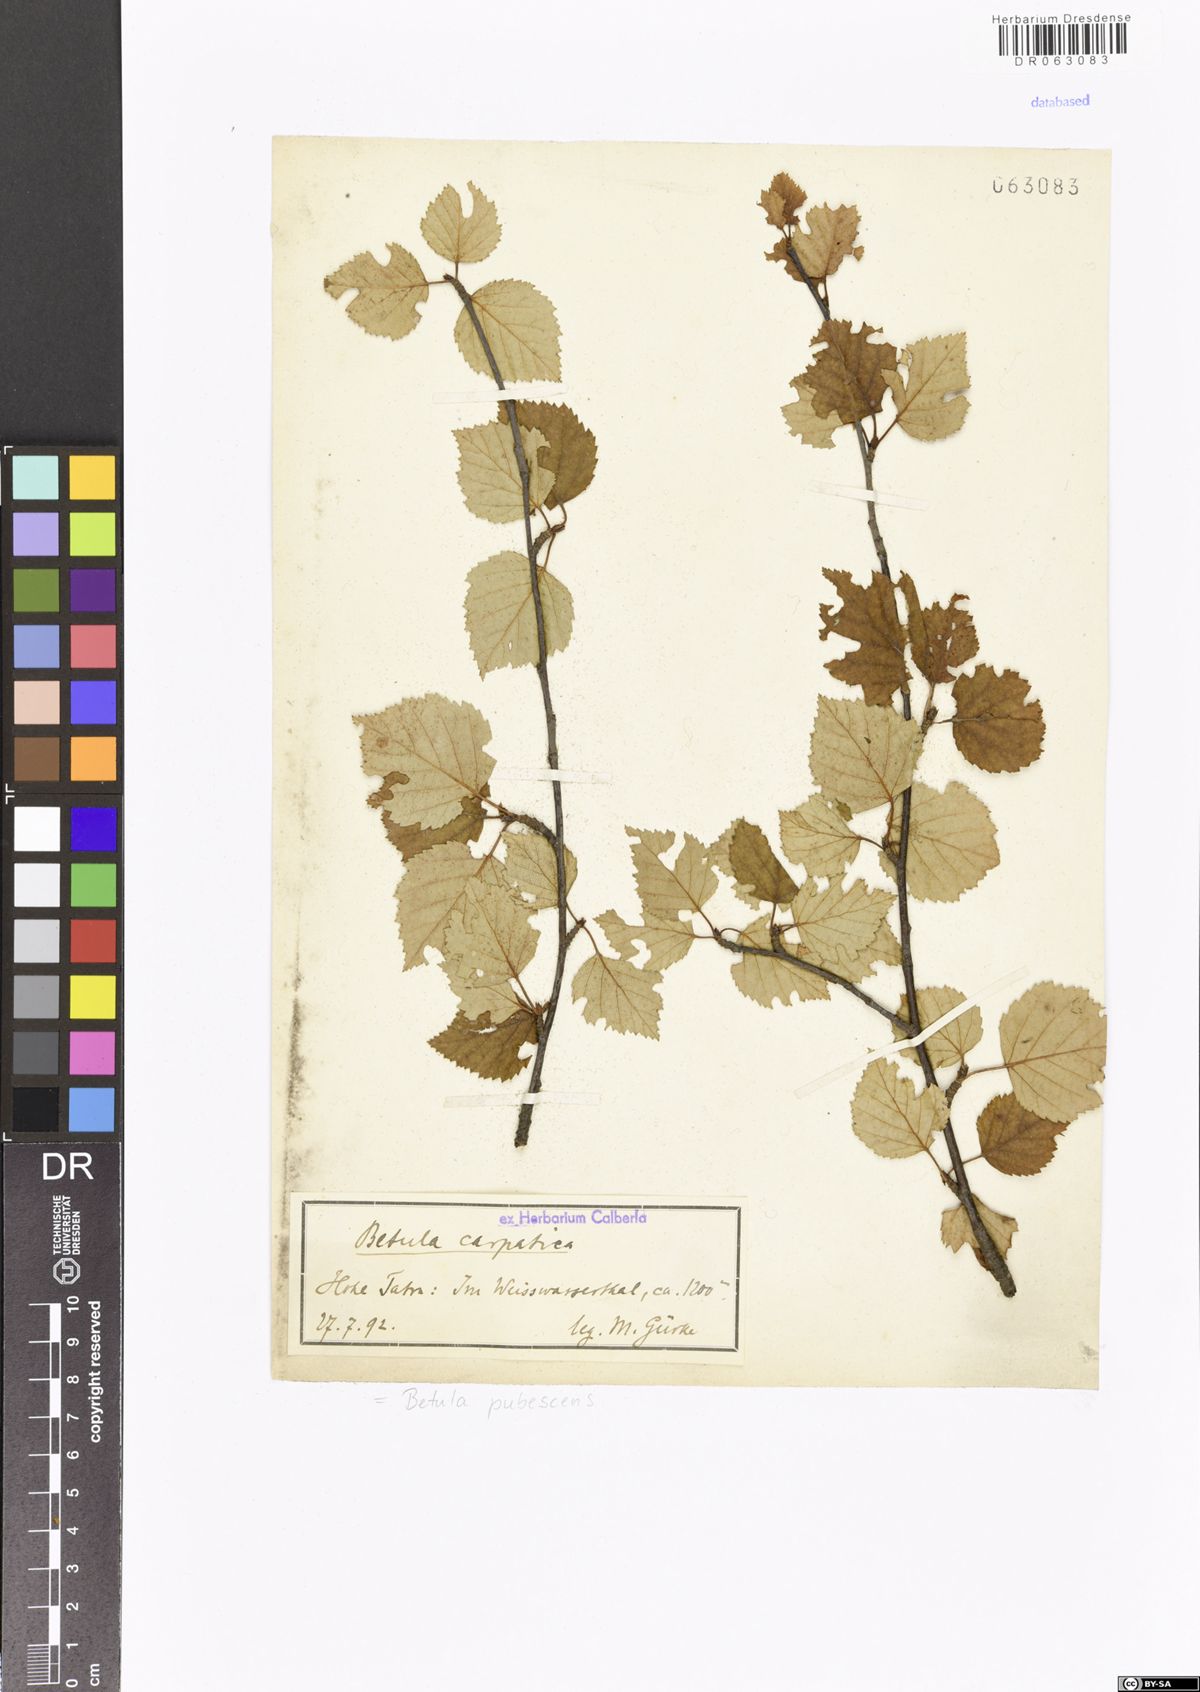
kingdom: Plantae
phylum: Tracheophyta
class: Magnoliopsida
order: Fagales
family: Betulaceae
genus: Betula
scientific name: Betula pubescens
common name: Downy birch
